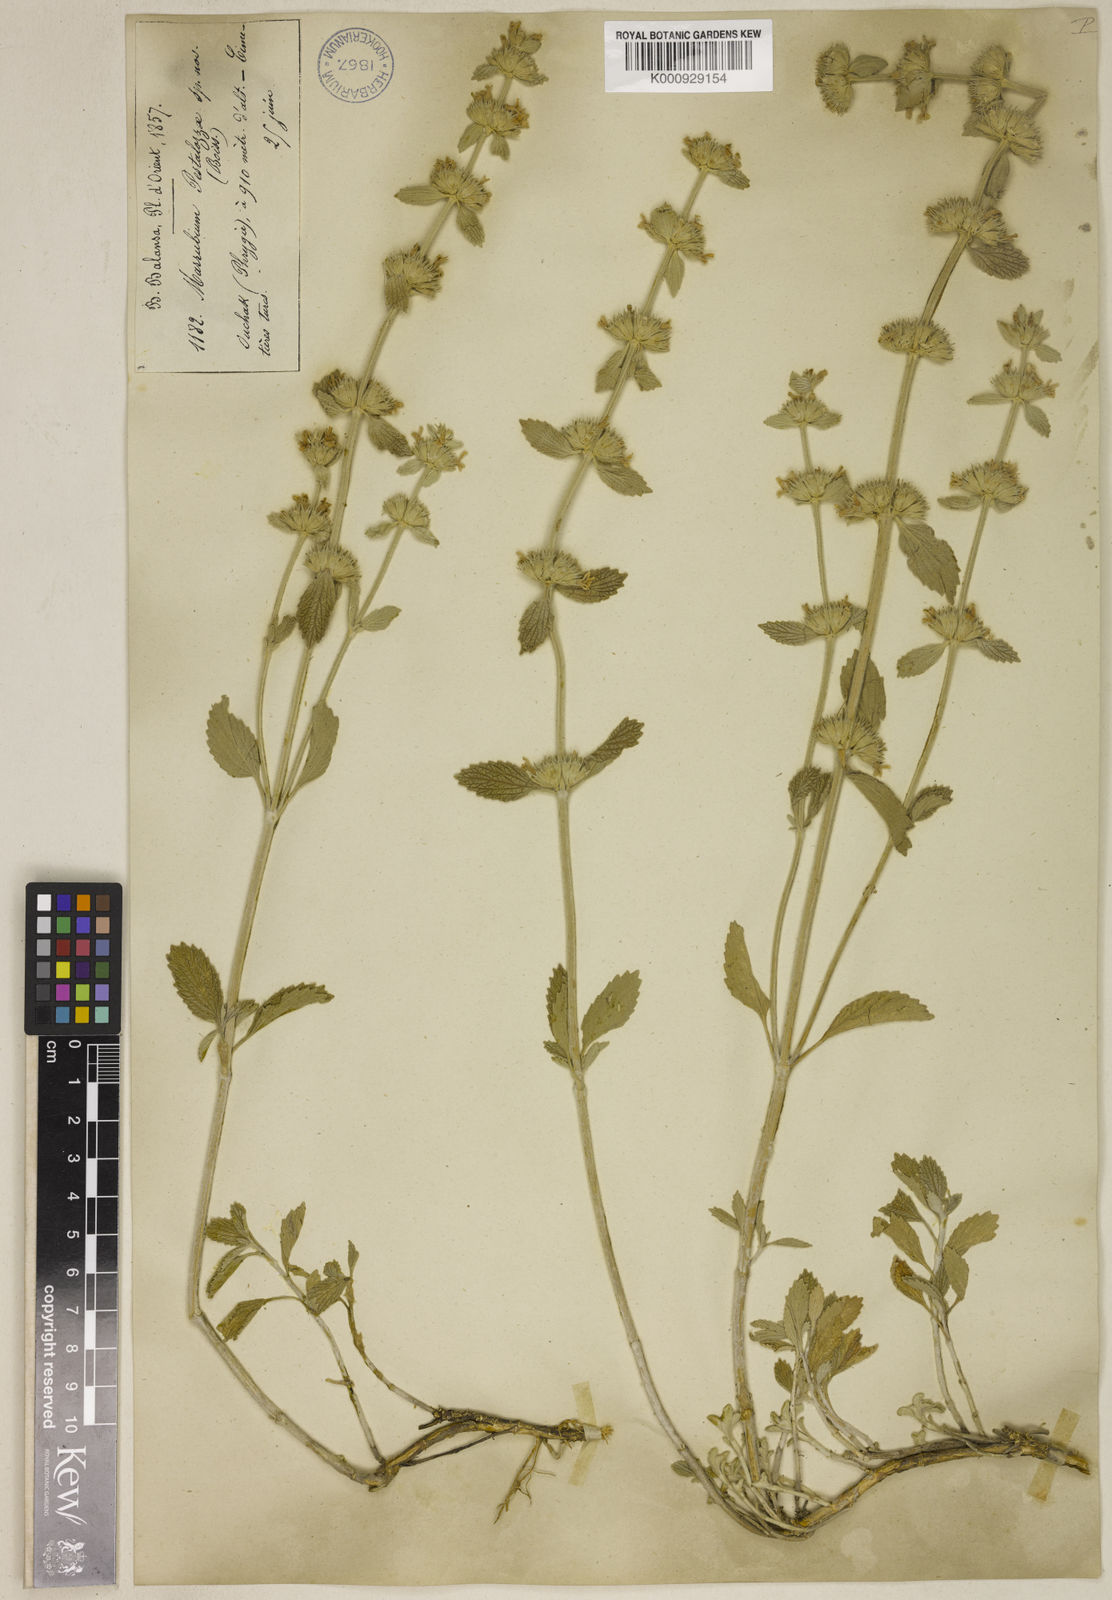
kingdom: Plantae
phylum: Tracheophyta
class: Magnoliopsida
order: Lamiales
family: Lamiaceae
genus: Marrubium
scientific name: Marrubium peregrinum
